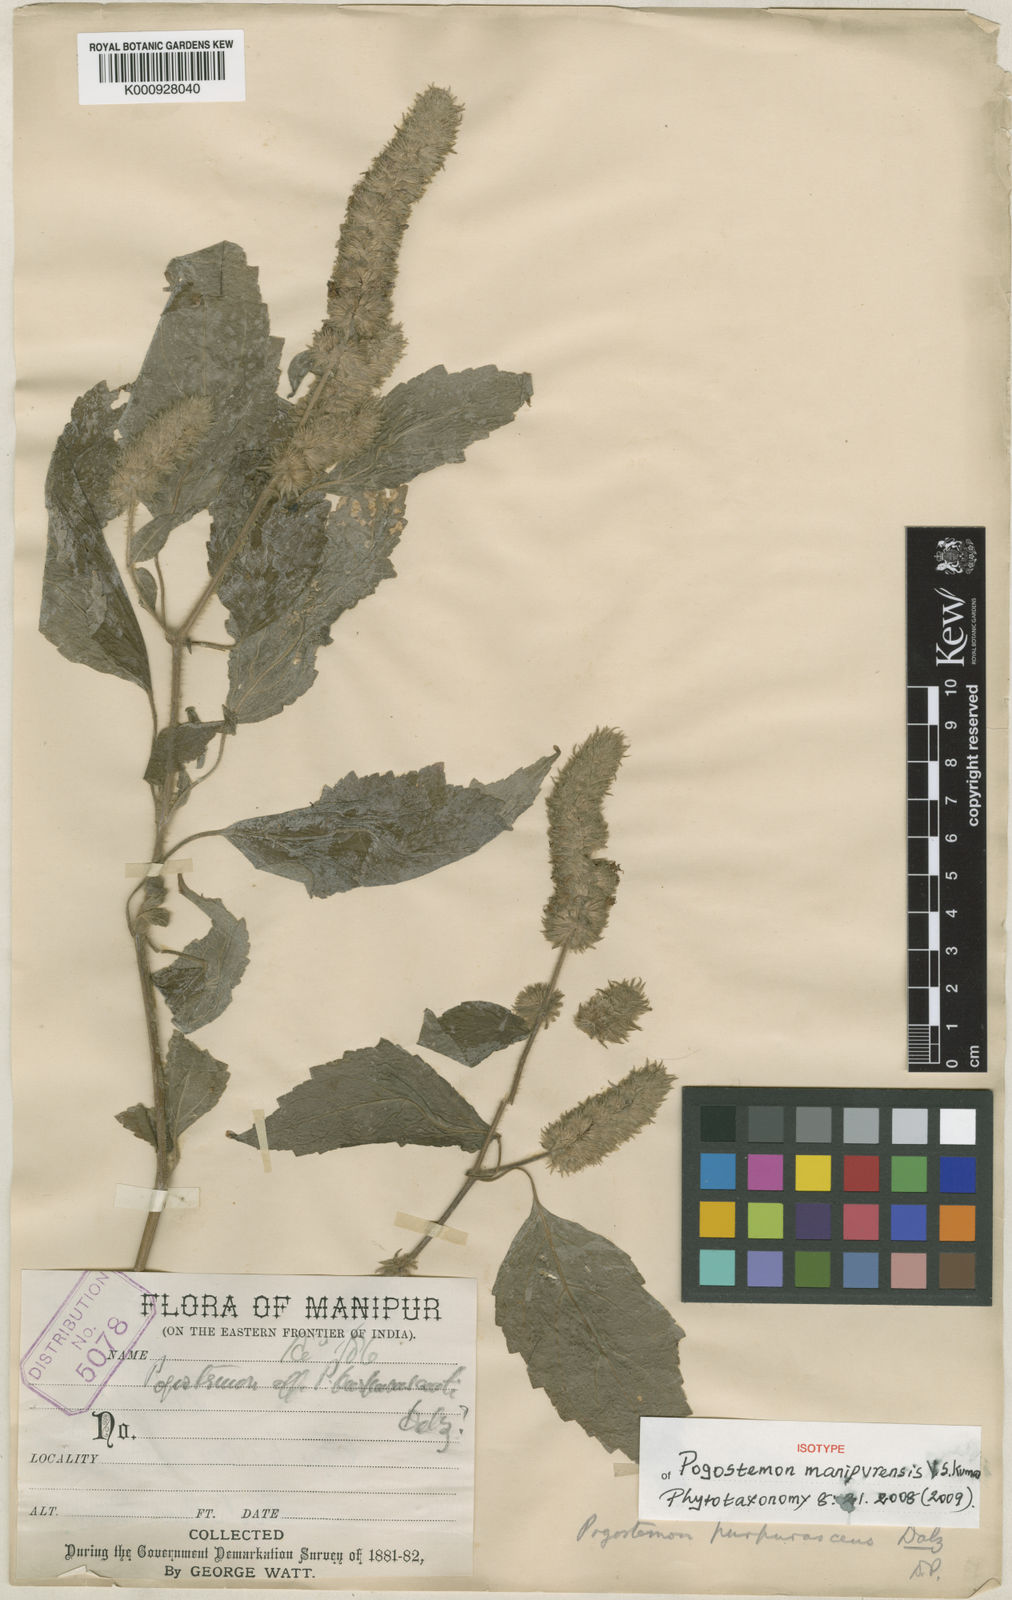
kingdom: Plantae
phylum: Tracheophyta
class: Magnoliopsida
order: Lamiales
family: Lamiaceae
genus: Pogostemon
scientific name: Pogostemon purpurascens
